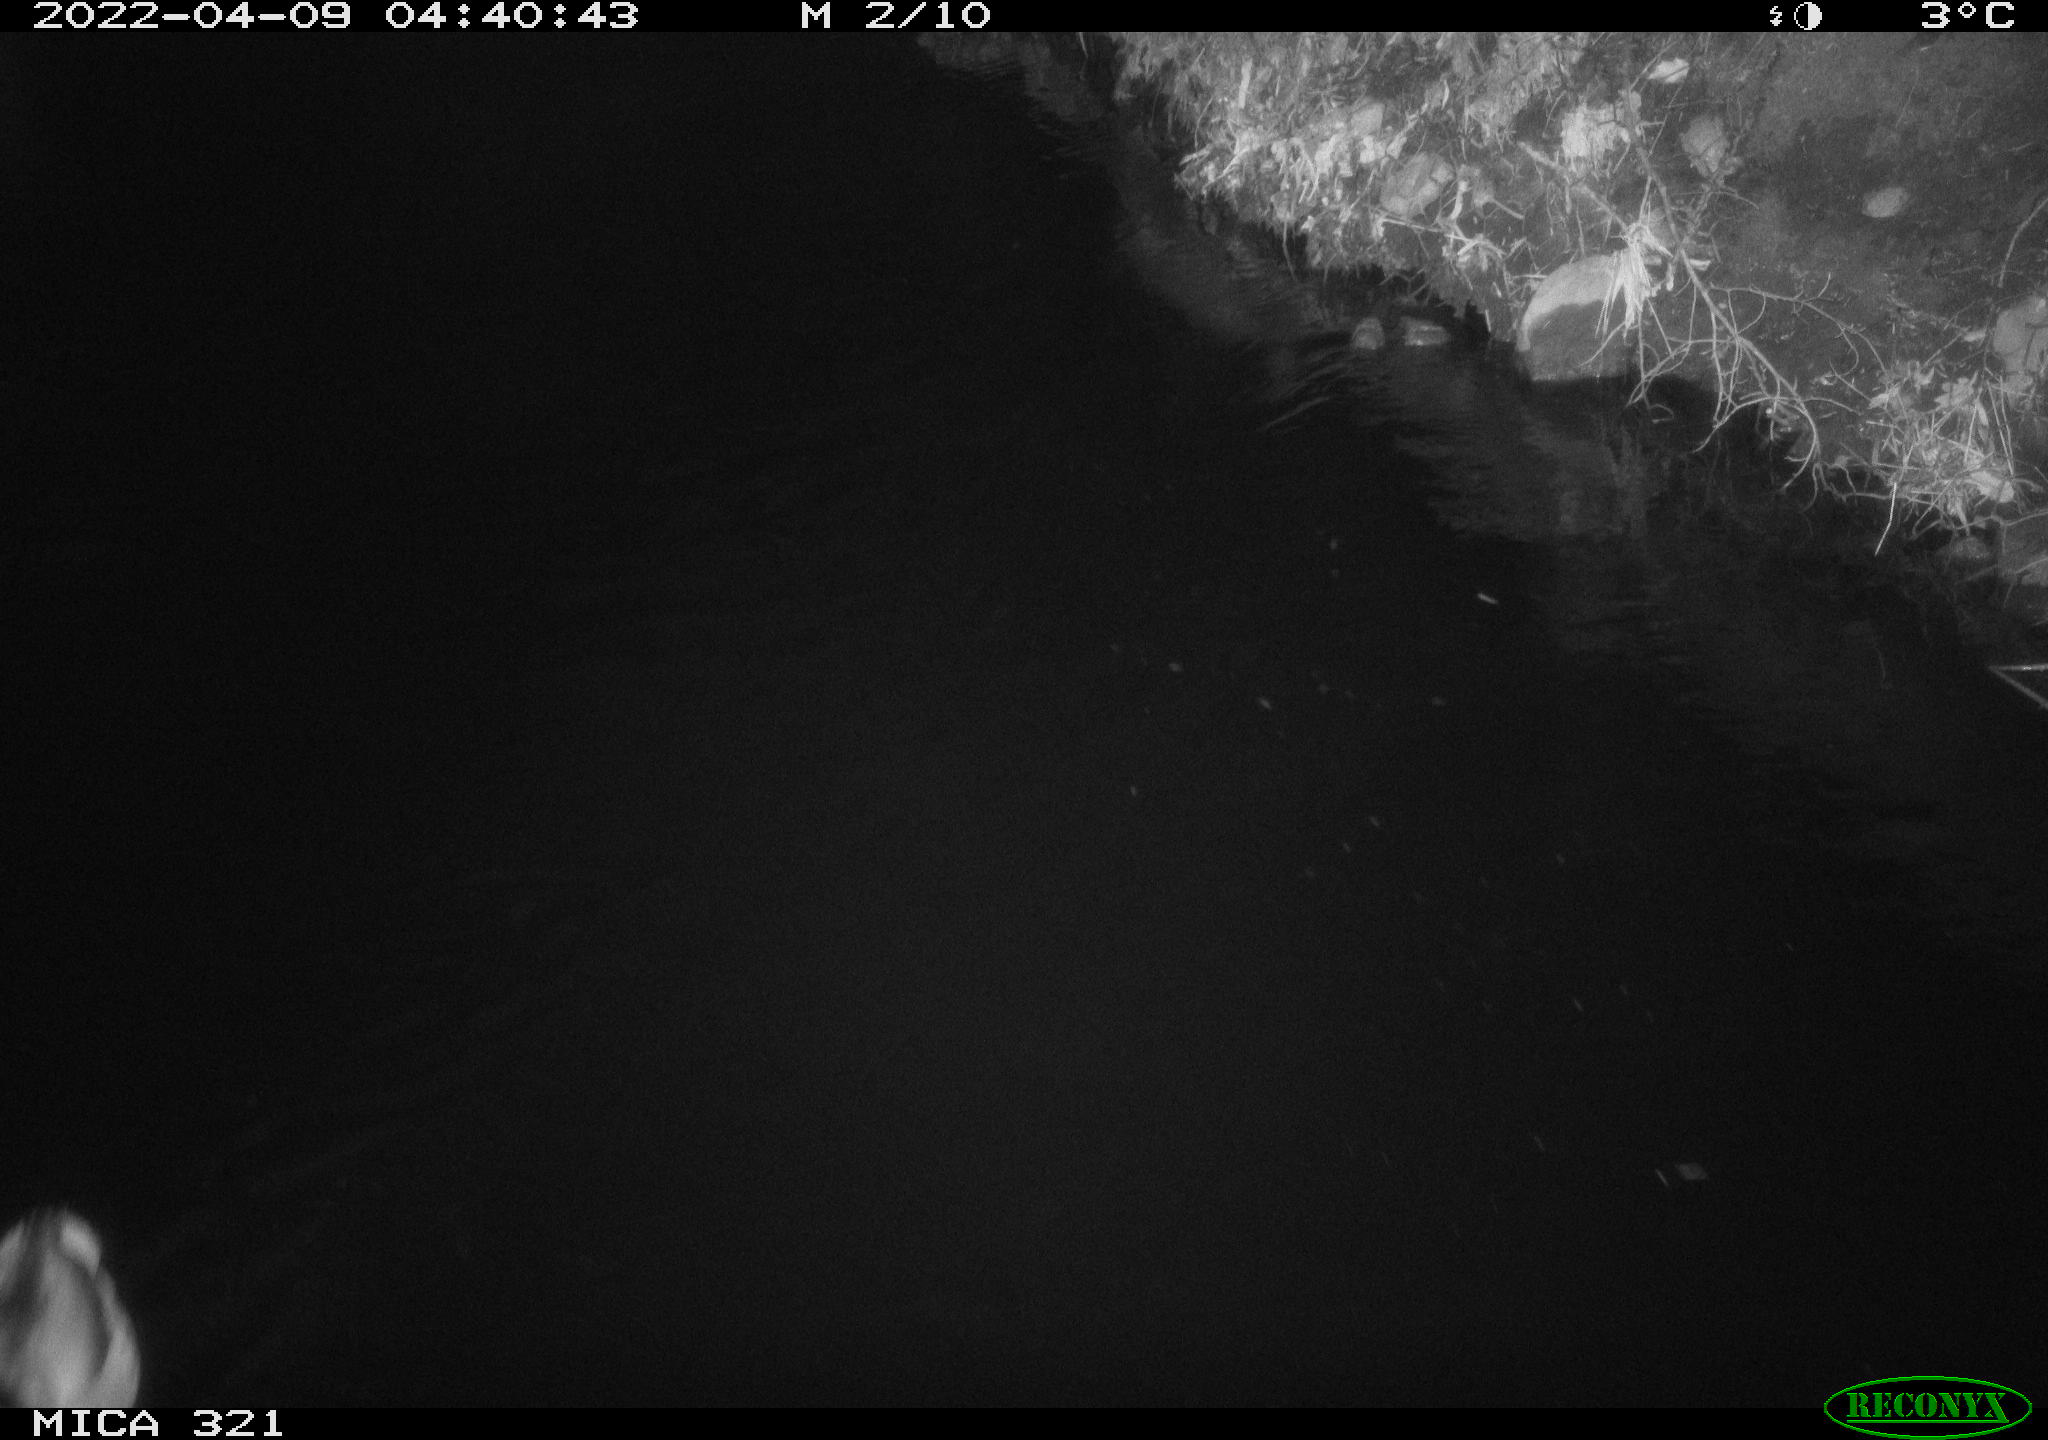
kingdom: Animalia
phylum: Chordata
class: Aves
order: Anseriformes
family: Anatidae
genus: Anas
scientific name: Anas platyrhynchos
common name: Mallard
